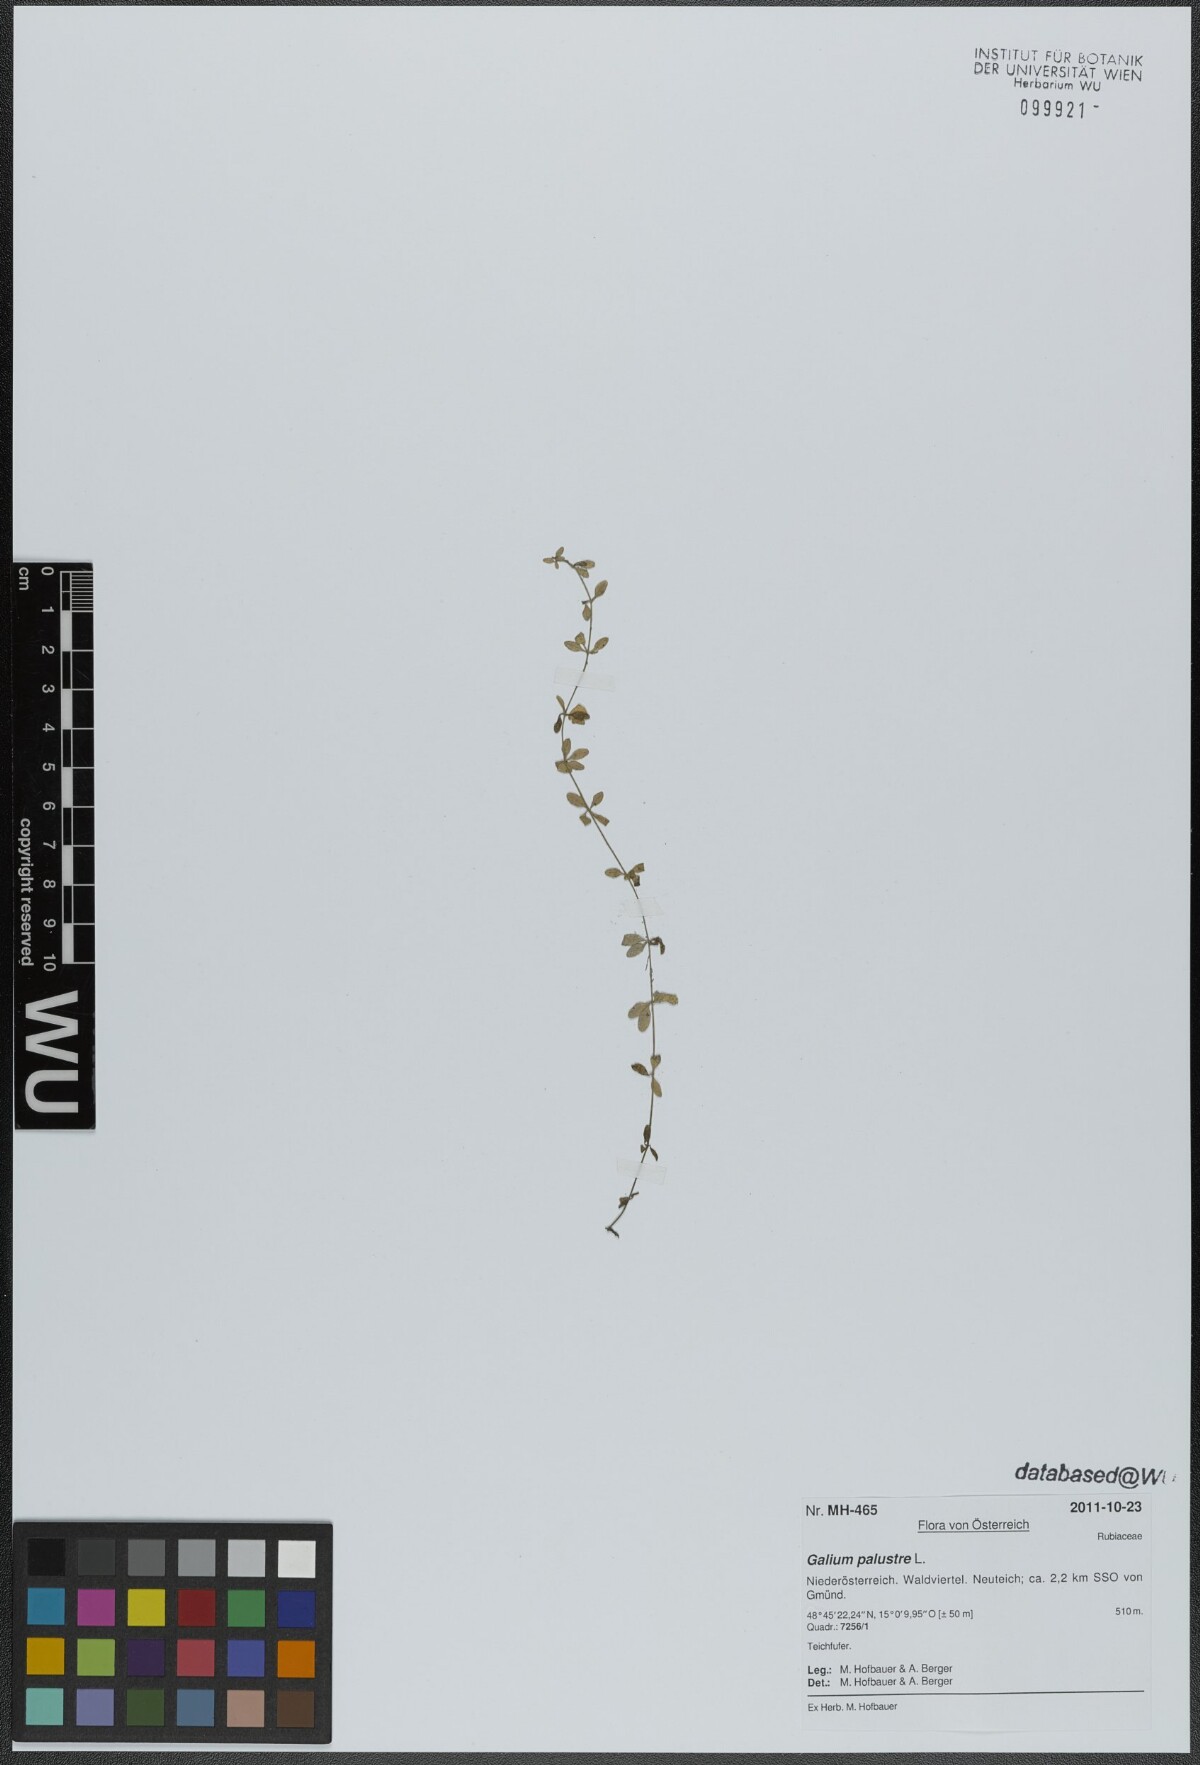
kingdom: Plantae
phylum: Tracheophyta
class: Magnoliopsida
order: Gentianales
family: Rubiaceae
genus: Galium
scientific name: Galium palustre
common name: Common marsh-bedstraw
